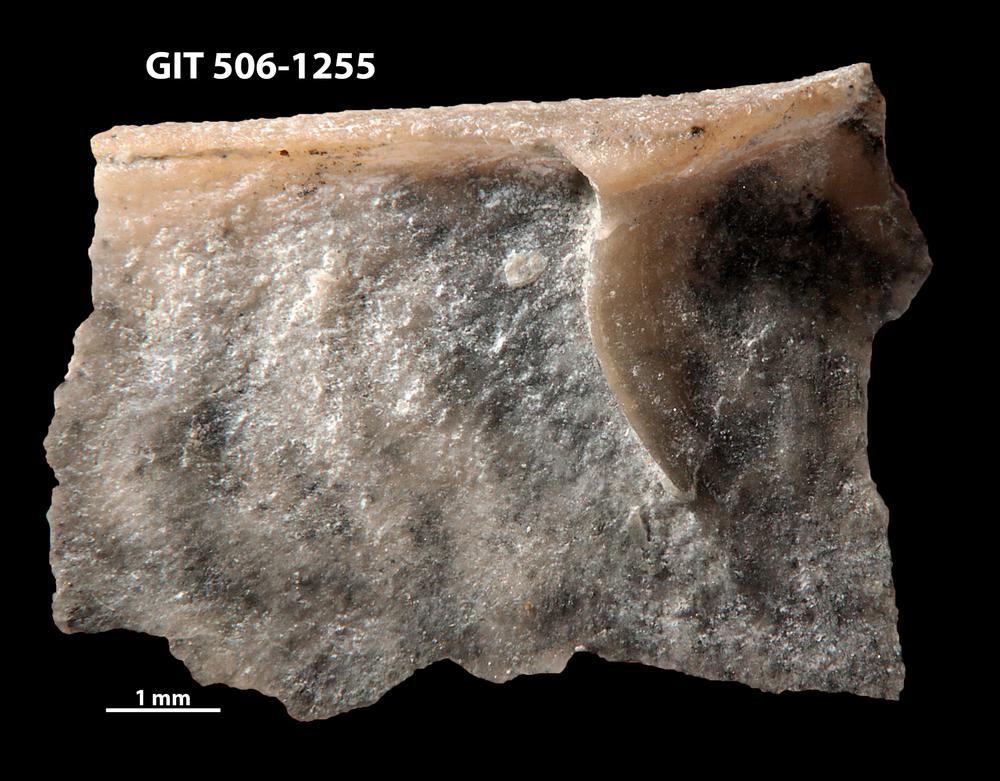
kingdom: Animalia
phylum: Brachiopoda
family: Strophomenidae
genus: Leptaena
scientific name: Leptaena haverfordensis
